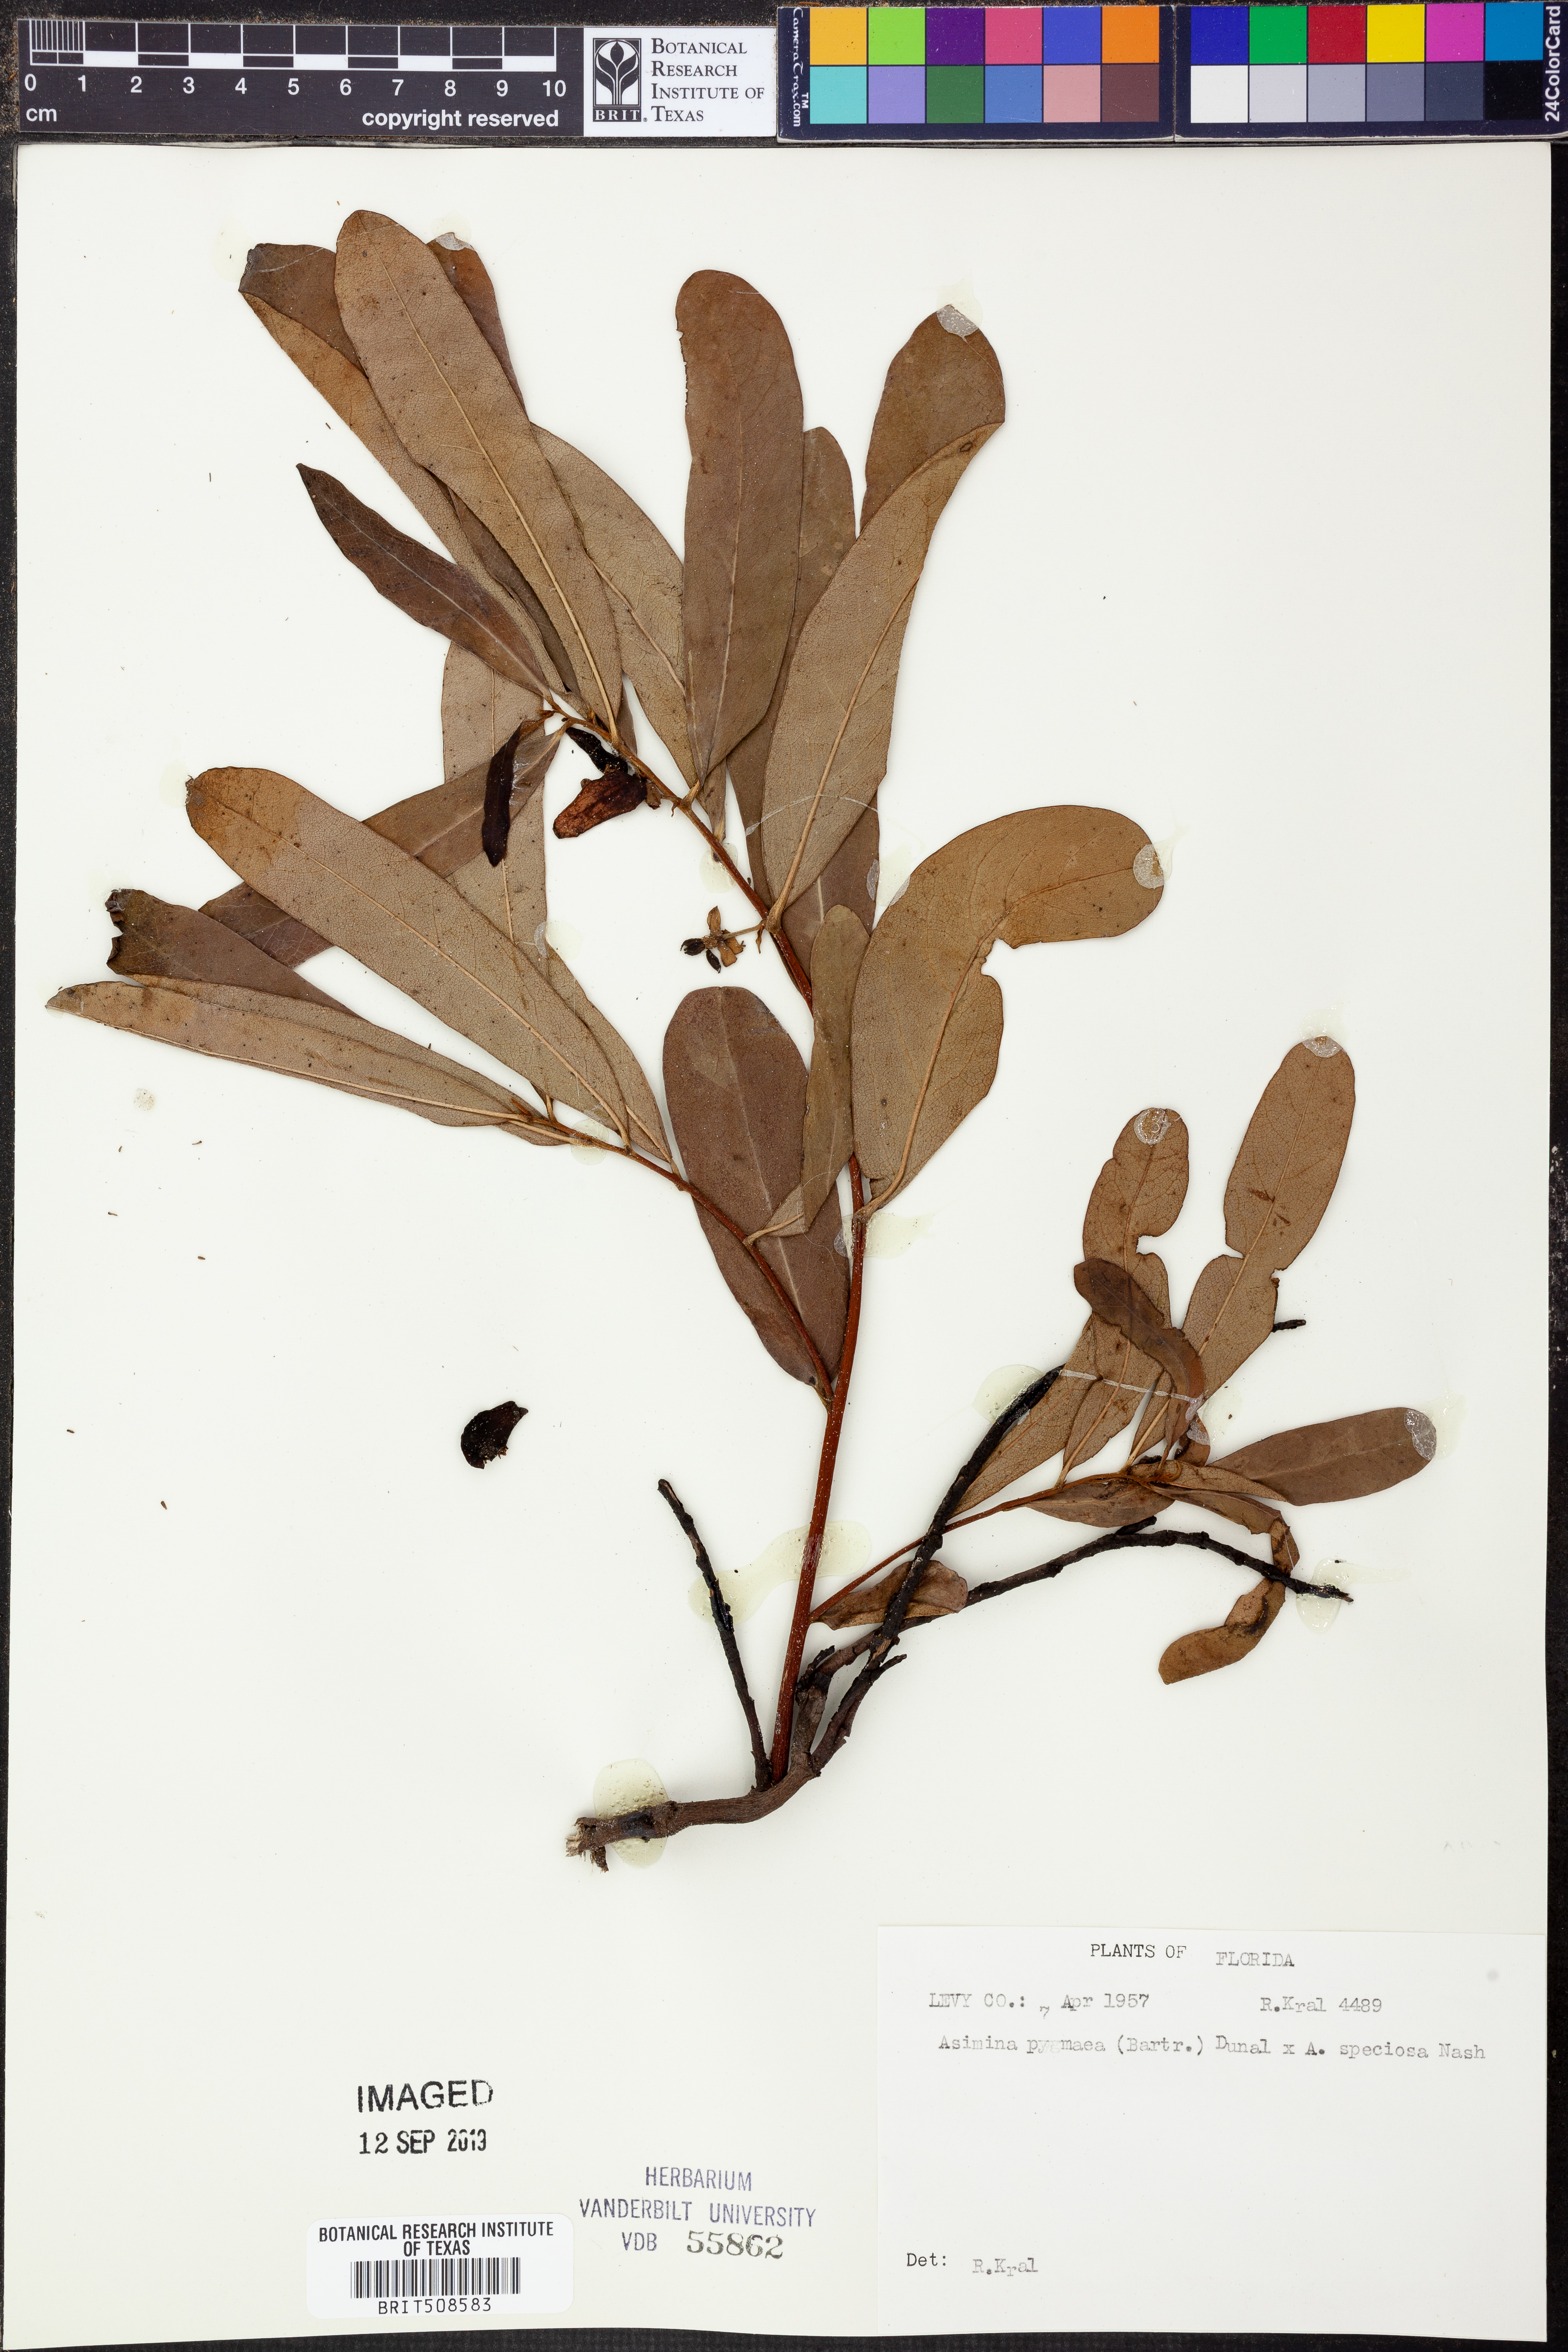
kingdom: Plantae
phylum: Tracheophyta
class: Magnoliopsida
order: Magnoliales
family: Annonaceae
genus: Asimina
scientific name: Asimina pygmaea
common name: Dwarf pawpaw
